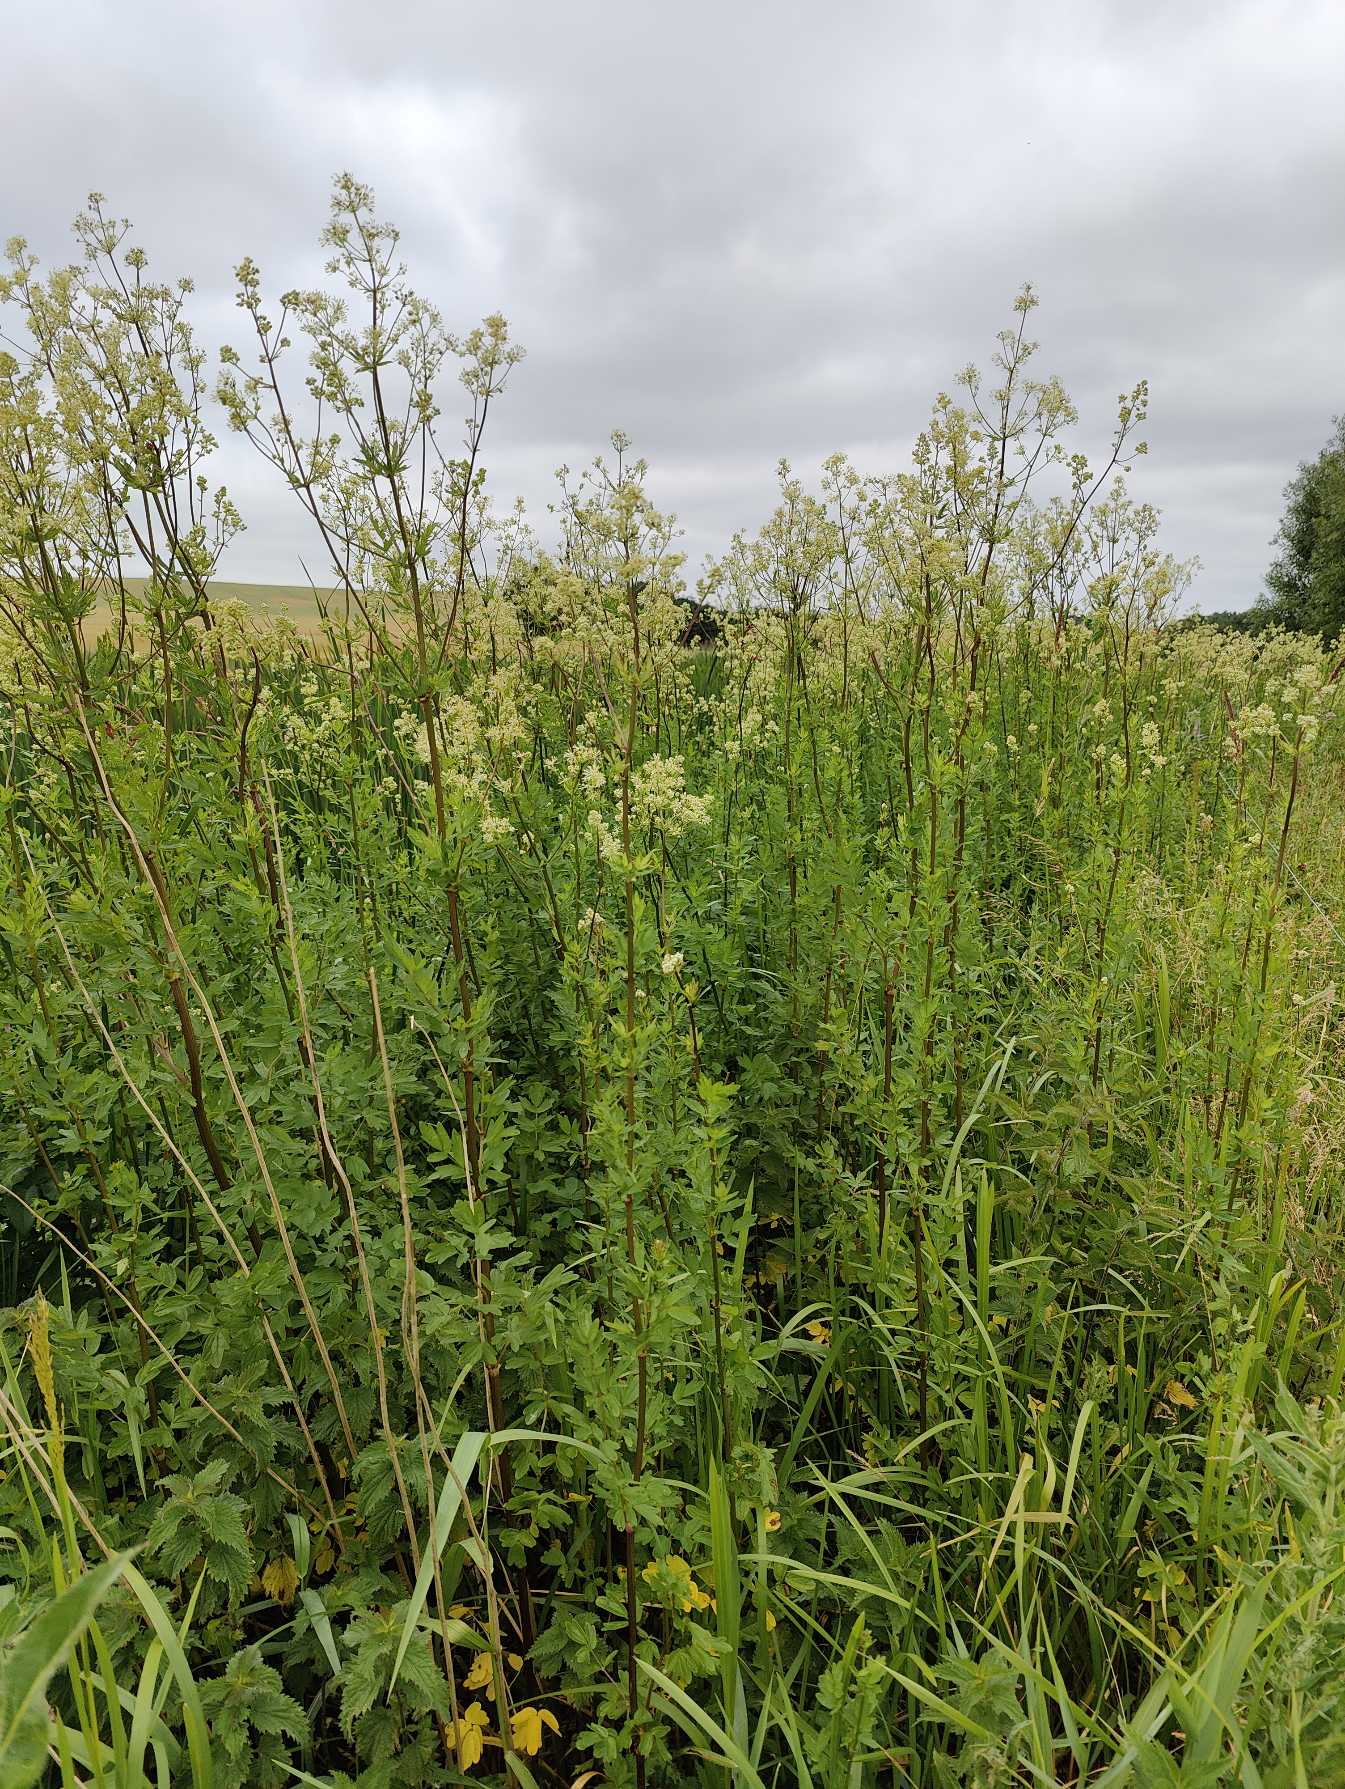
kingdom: Plantae
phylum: Tracheophyta
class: Magnoliopsida
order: Rosales
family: Rosaceae
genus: Filipendula
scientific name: Filipendula vulgaris
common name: Knoldet mjødurt
